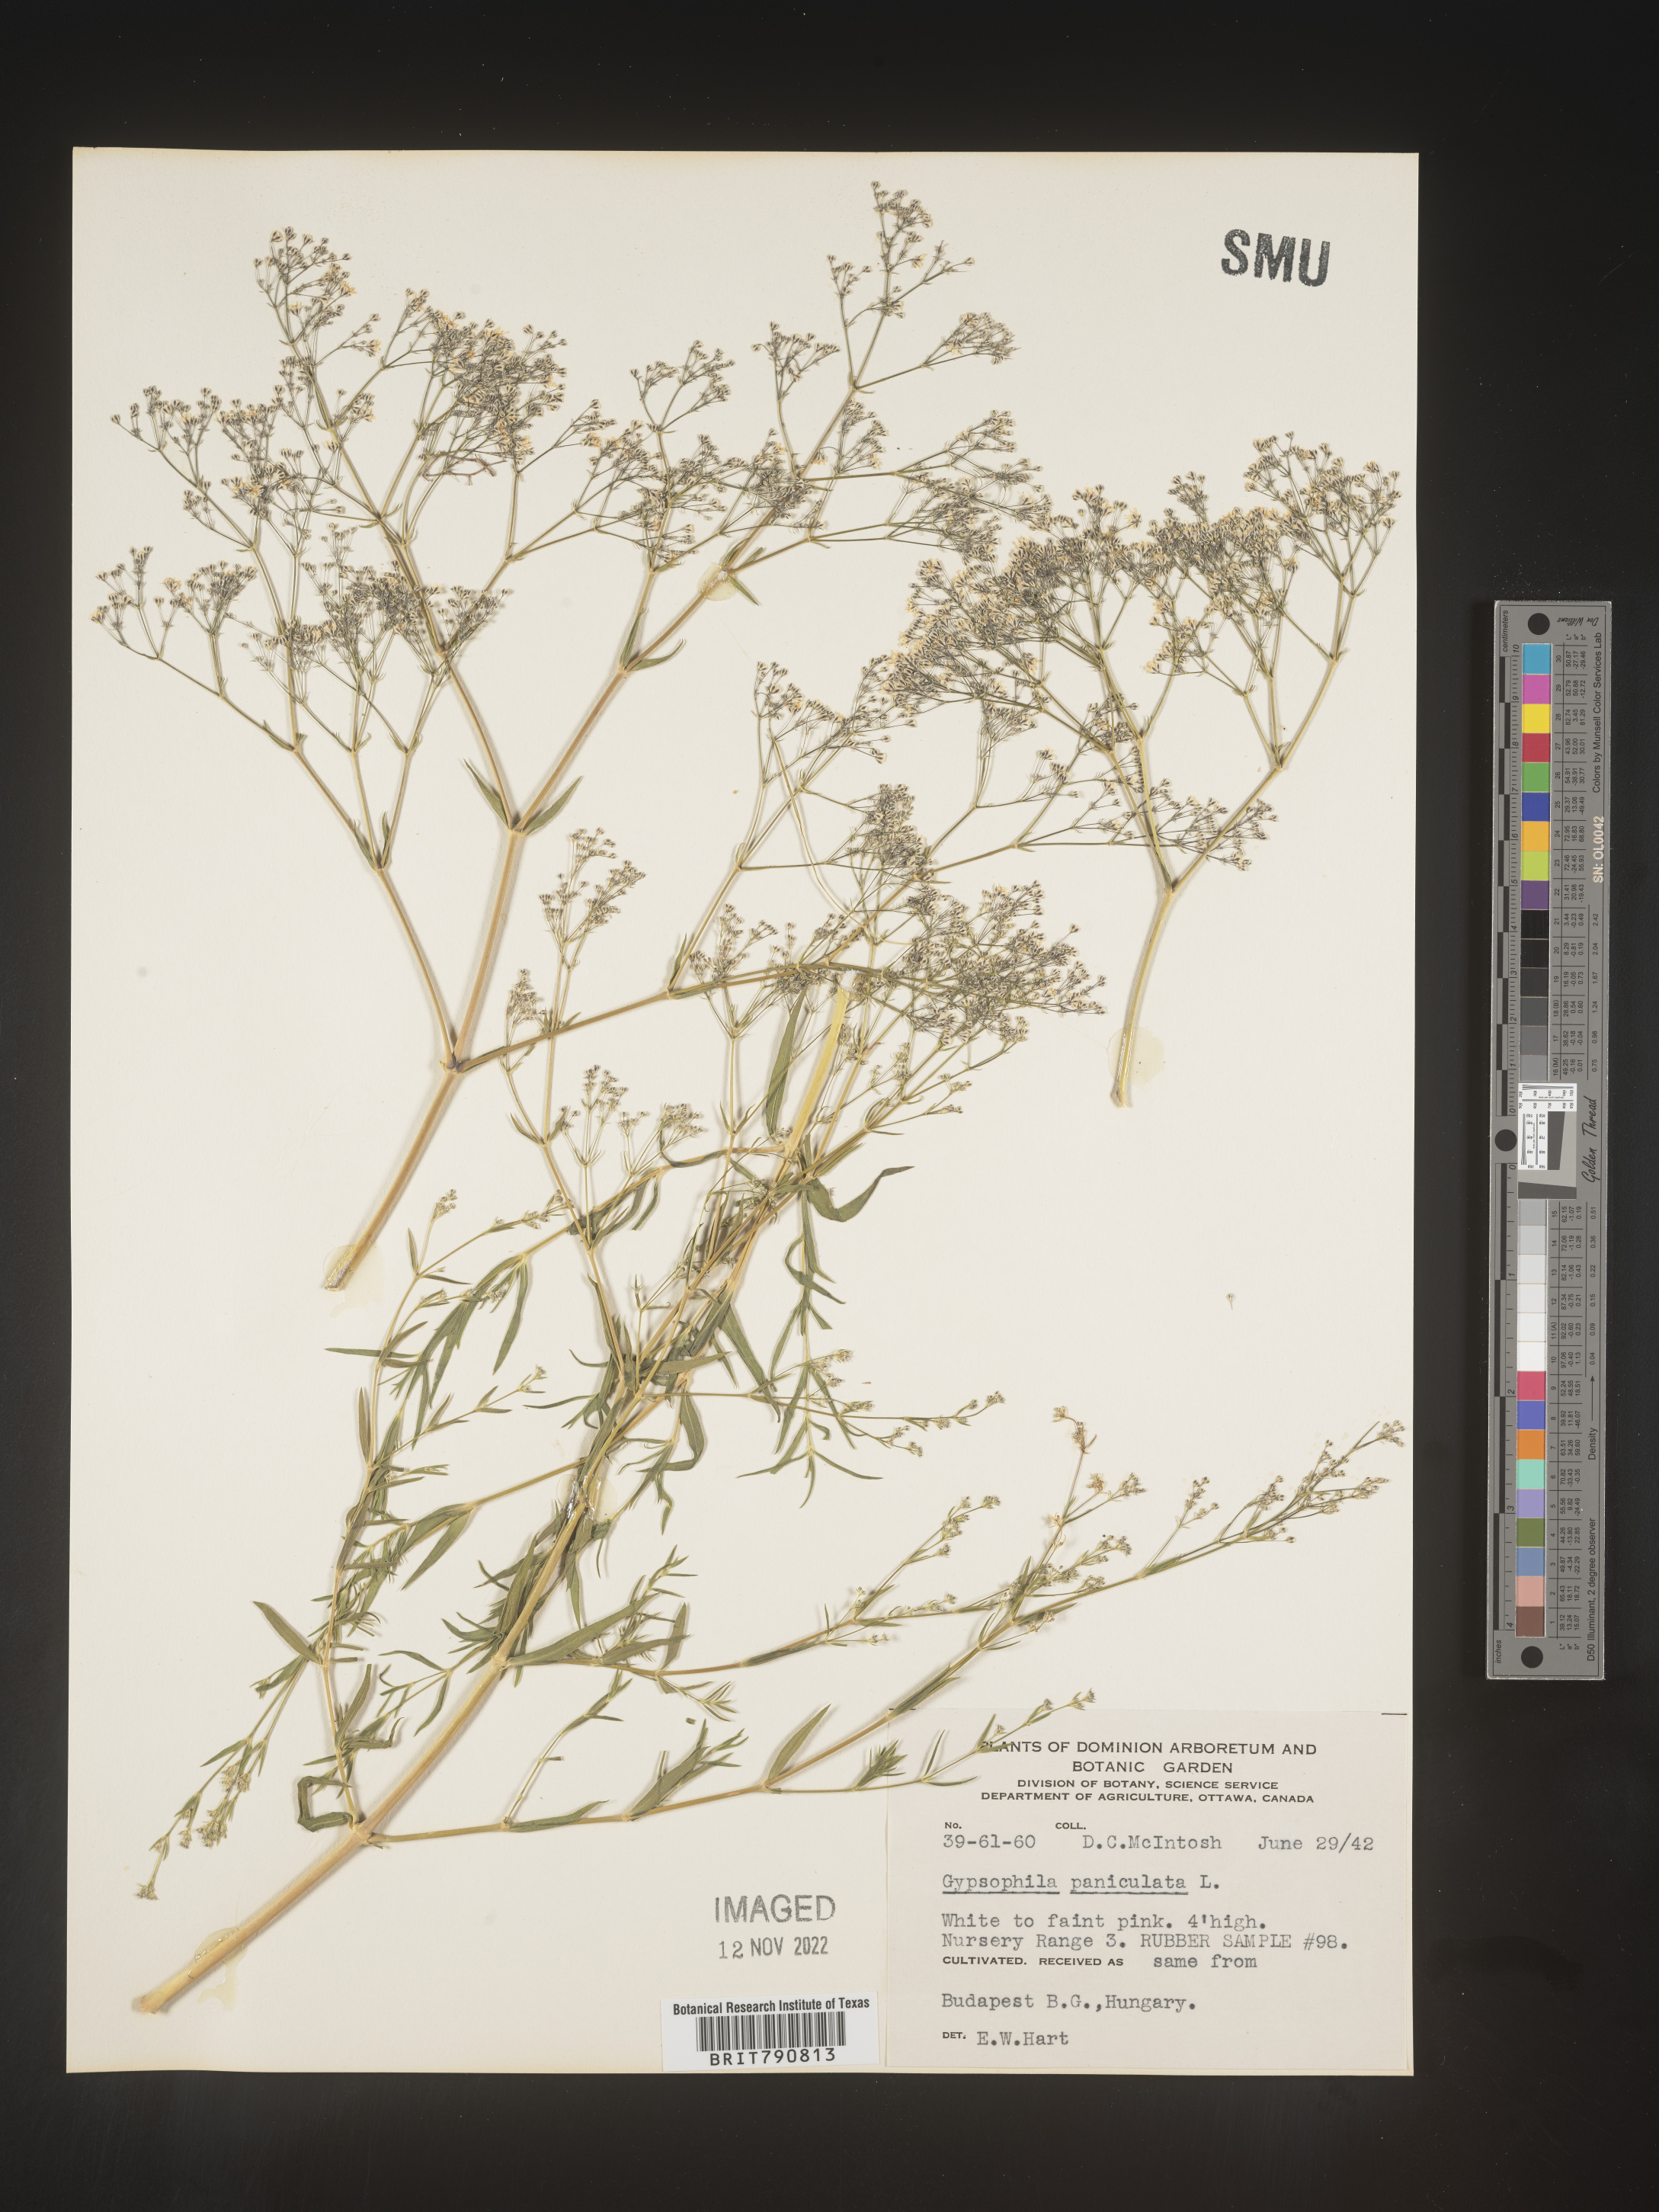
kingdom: Plantae
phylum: Tracheophyta
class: Magnoliopsida
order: Caryophyllales
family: Caryophyllaceae
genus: Gypsophila
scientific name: Gypsophila
